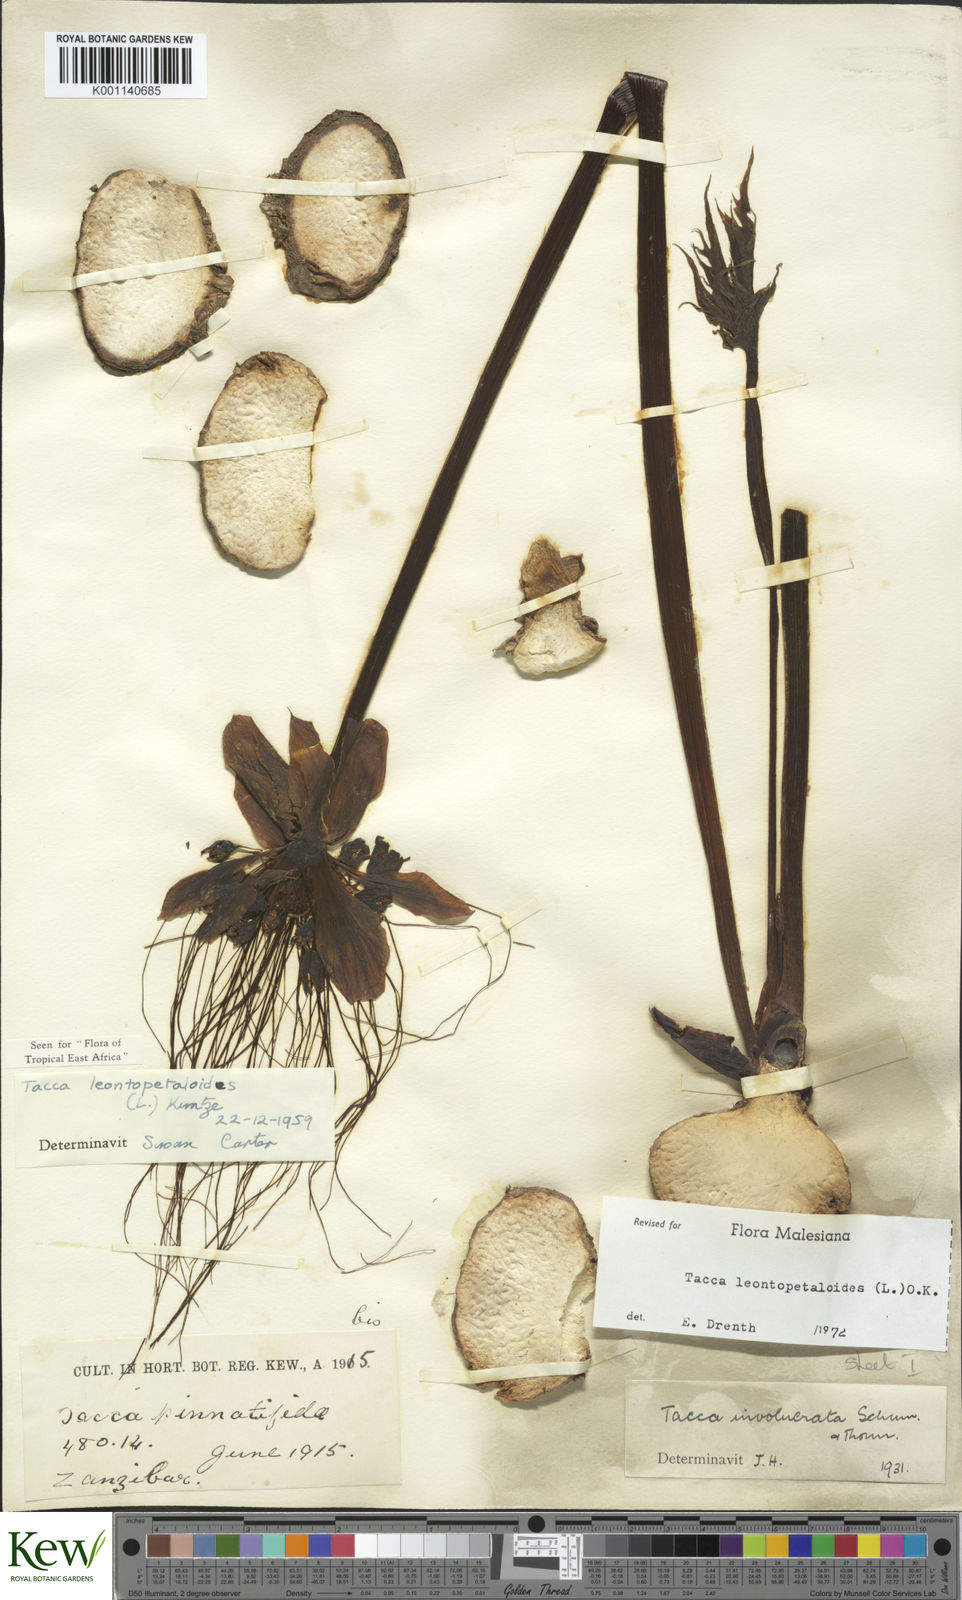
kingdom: Plantae
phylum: Tracheophyta
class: Liliopsida
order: Dioscoreales
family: Dioscoreaceae
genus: Tacca
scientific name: Tacca leontopetaloides
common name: Arrowroot
